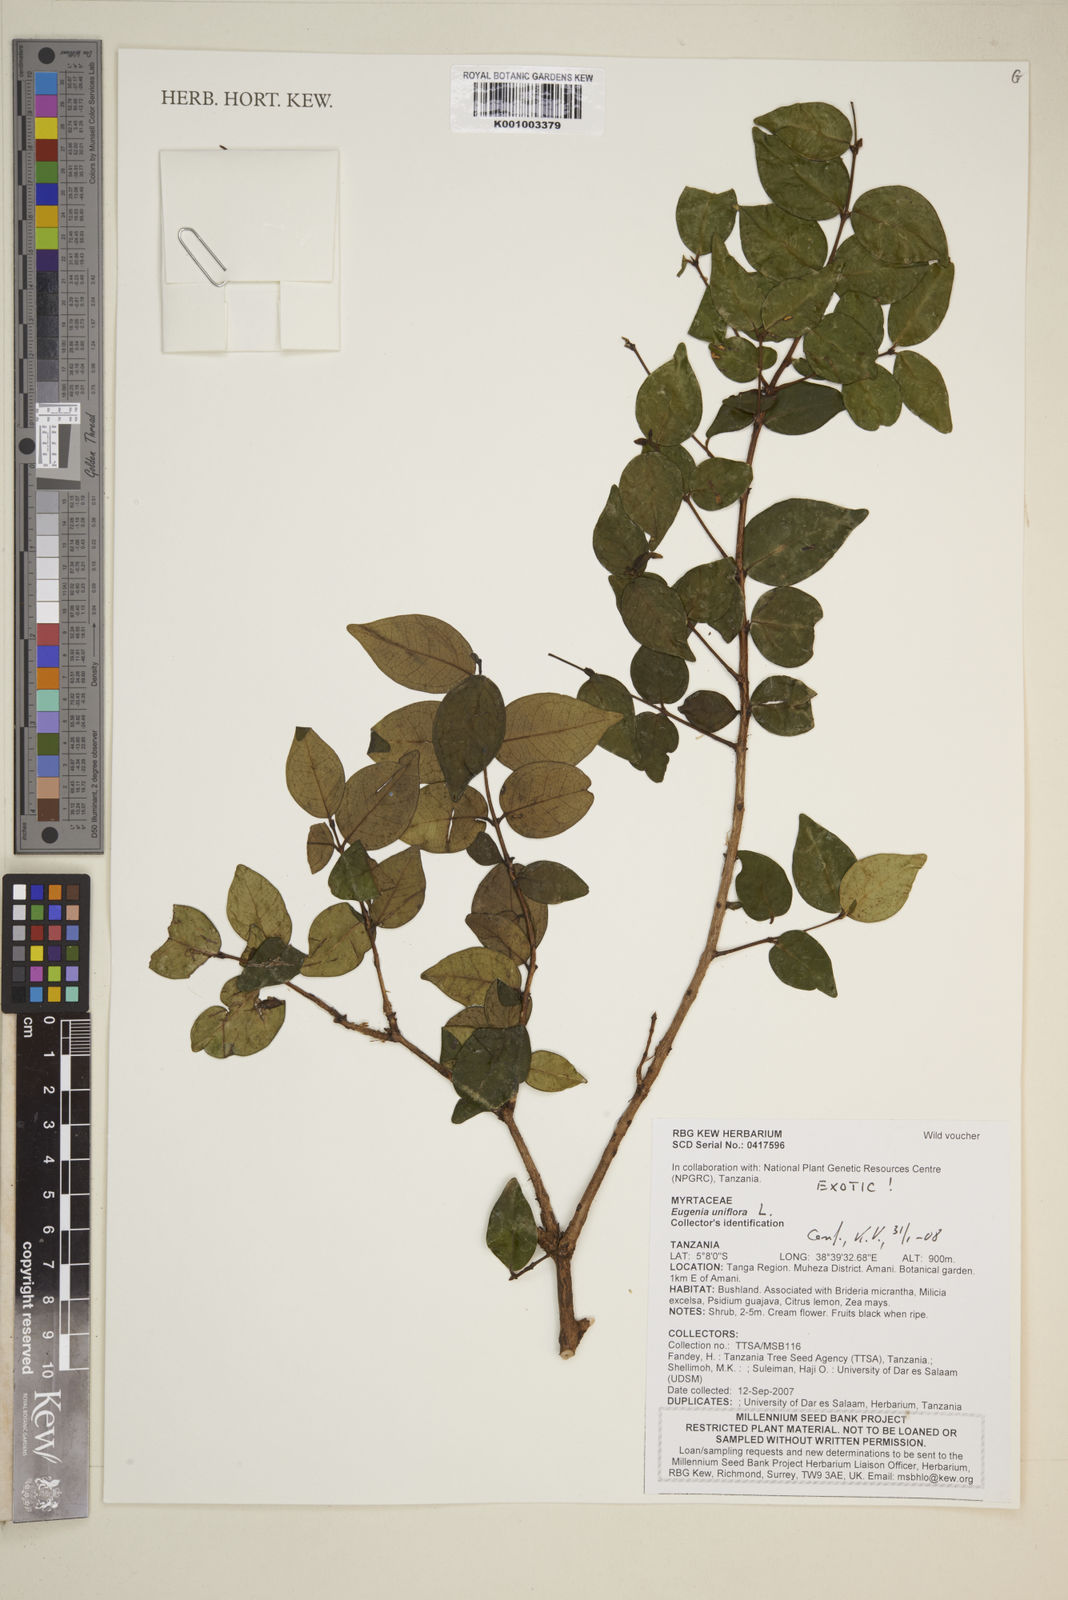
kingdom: Plantae
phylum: Tracheophyta
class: Magnoliopsida
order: Myrtales
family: Myrtaceae
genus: Eugenia
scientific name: Eugenia uniflora
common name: Surinam cherry
